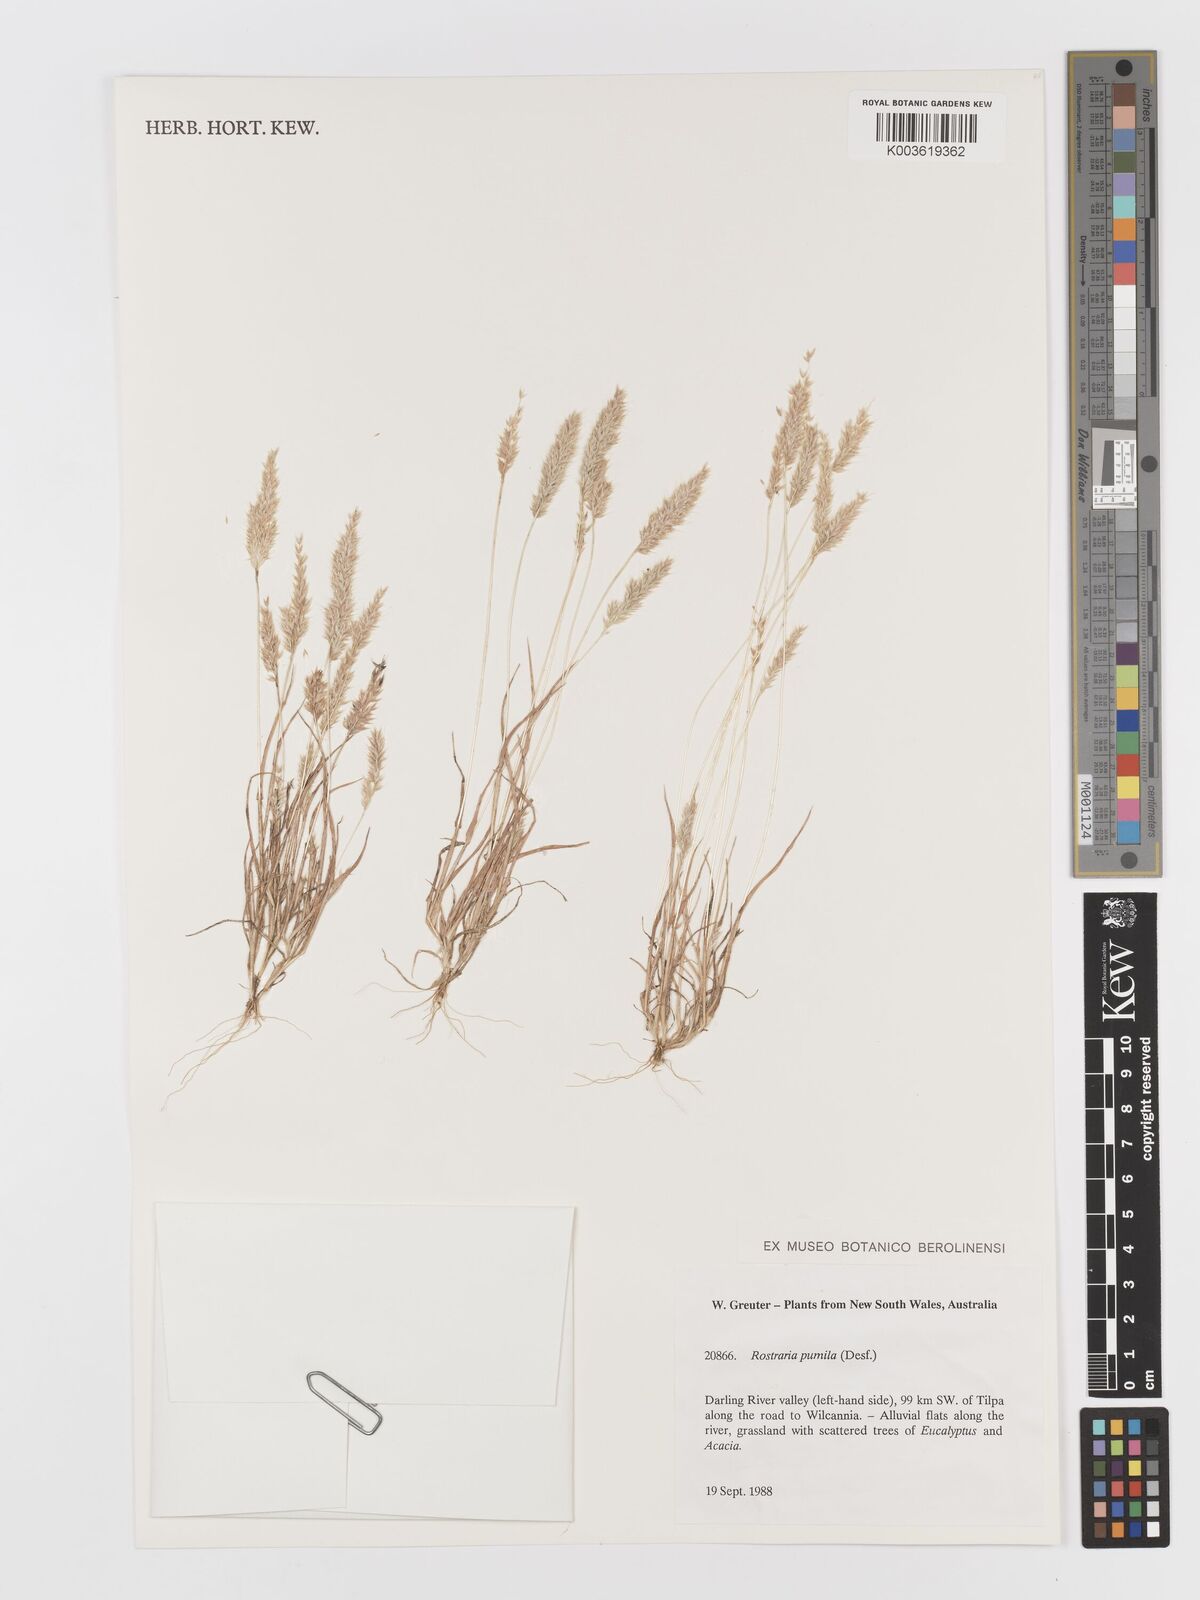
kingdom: Plantae
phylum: Tracheophyta
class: Liliopsida
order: Poales
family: Poaceae
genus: Rostraria
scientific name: Rostraria pumila
